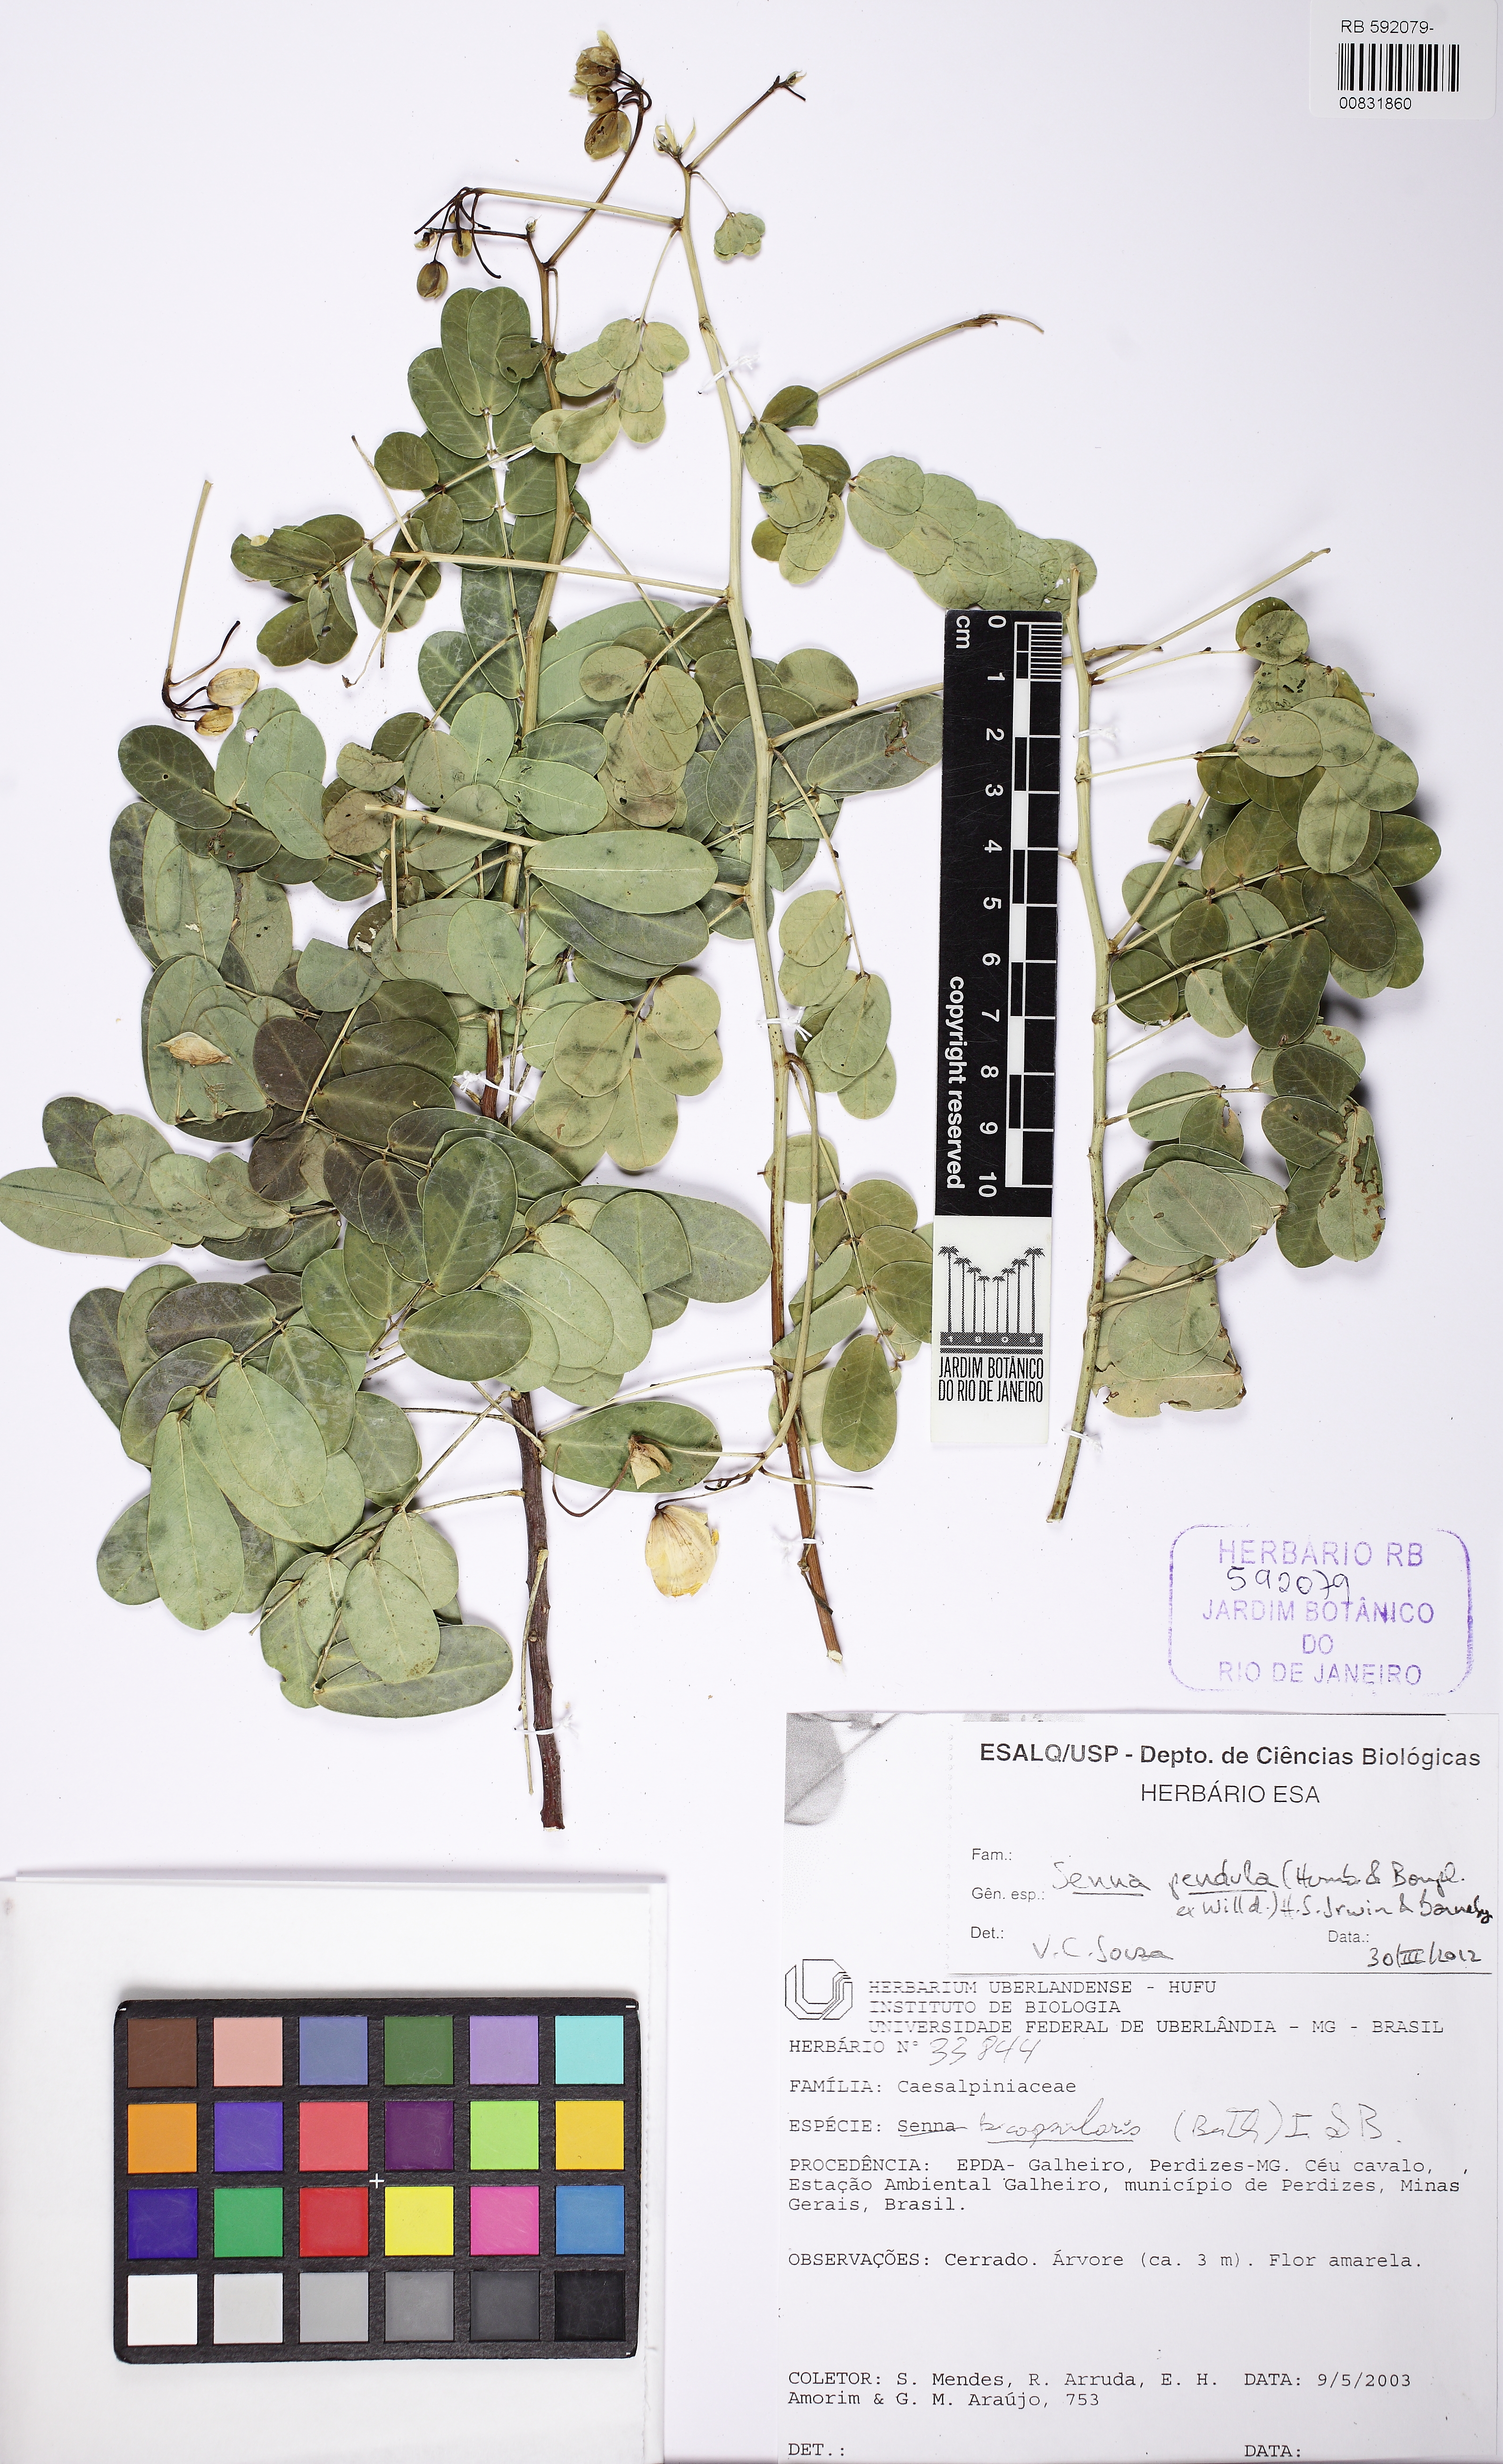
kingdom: Plantae
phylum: Tracheophyta
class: Magnoliopsida
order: Fabales
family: Fabaceae
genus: Senna
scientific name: Senna pendula
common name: Easter cassia
